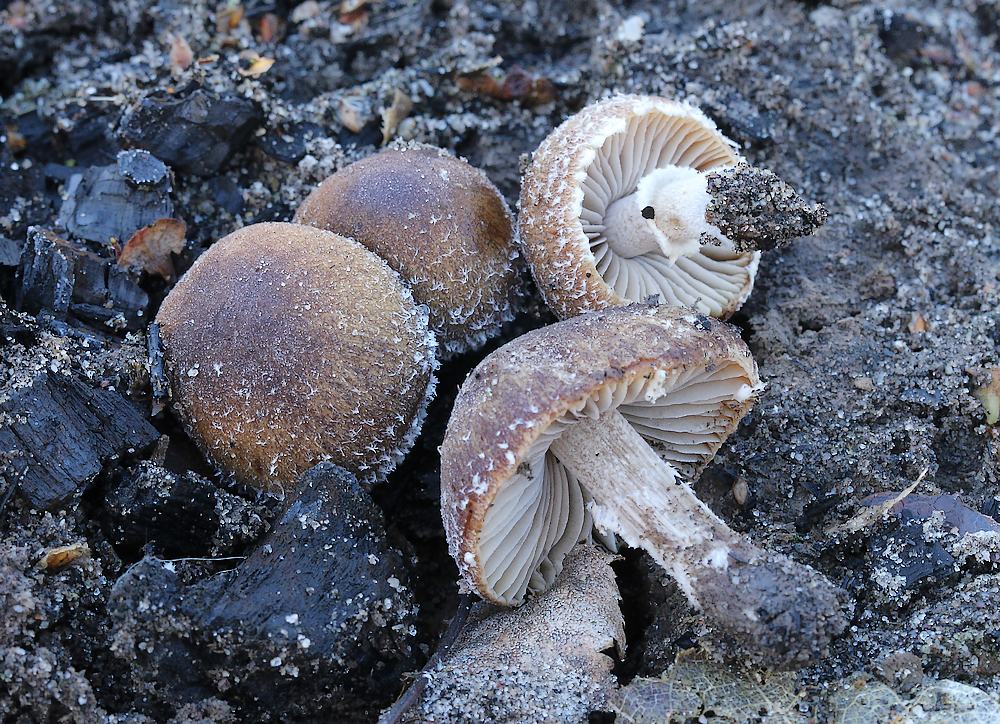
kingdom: Fungi
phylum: Basidiomycota
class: Agaricomycetes
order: Agaricales
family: Psathyrellaceae
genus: Psathyrella
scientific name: Psathyrella pennata
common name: kul-mørkhat
